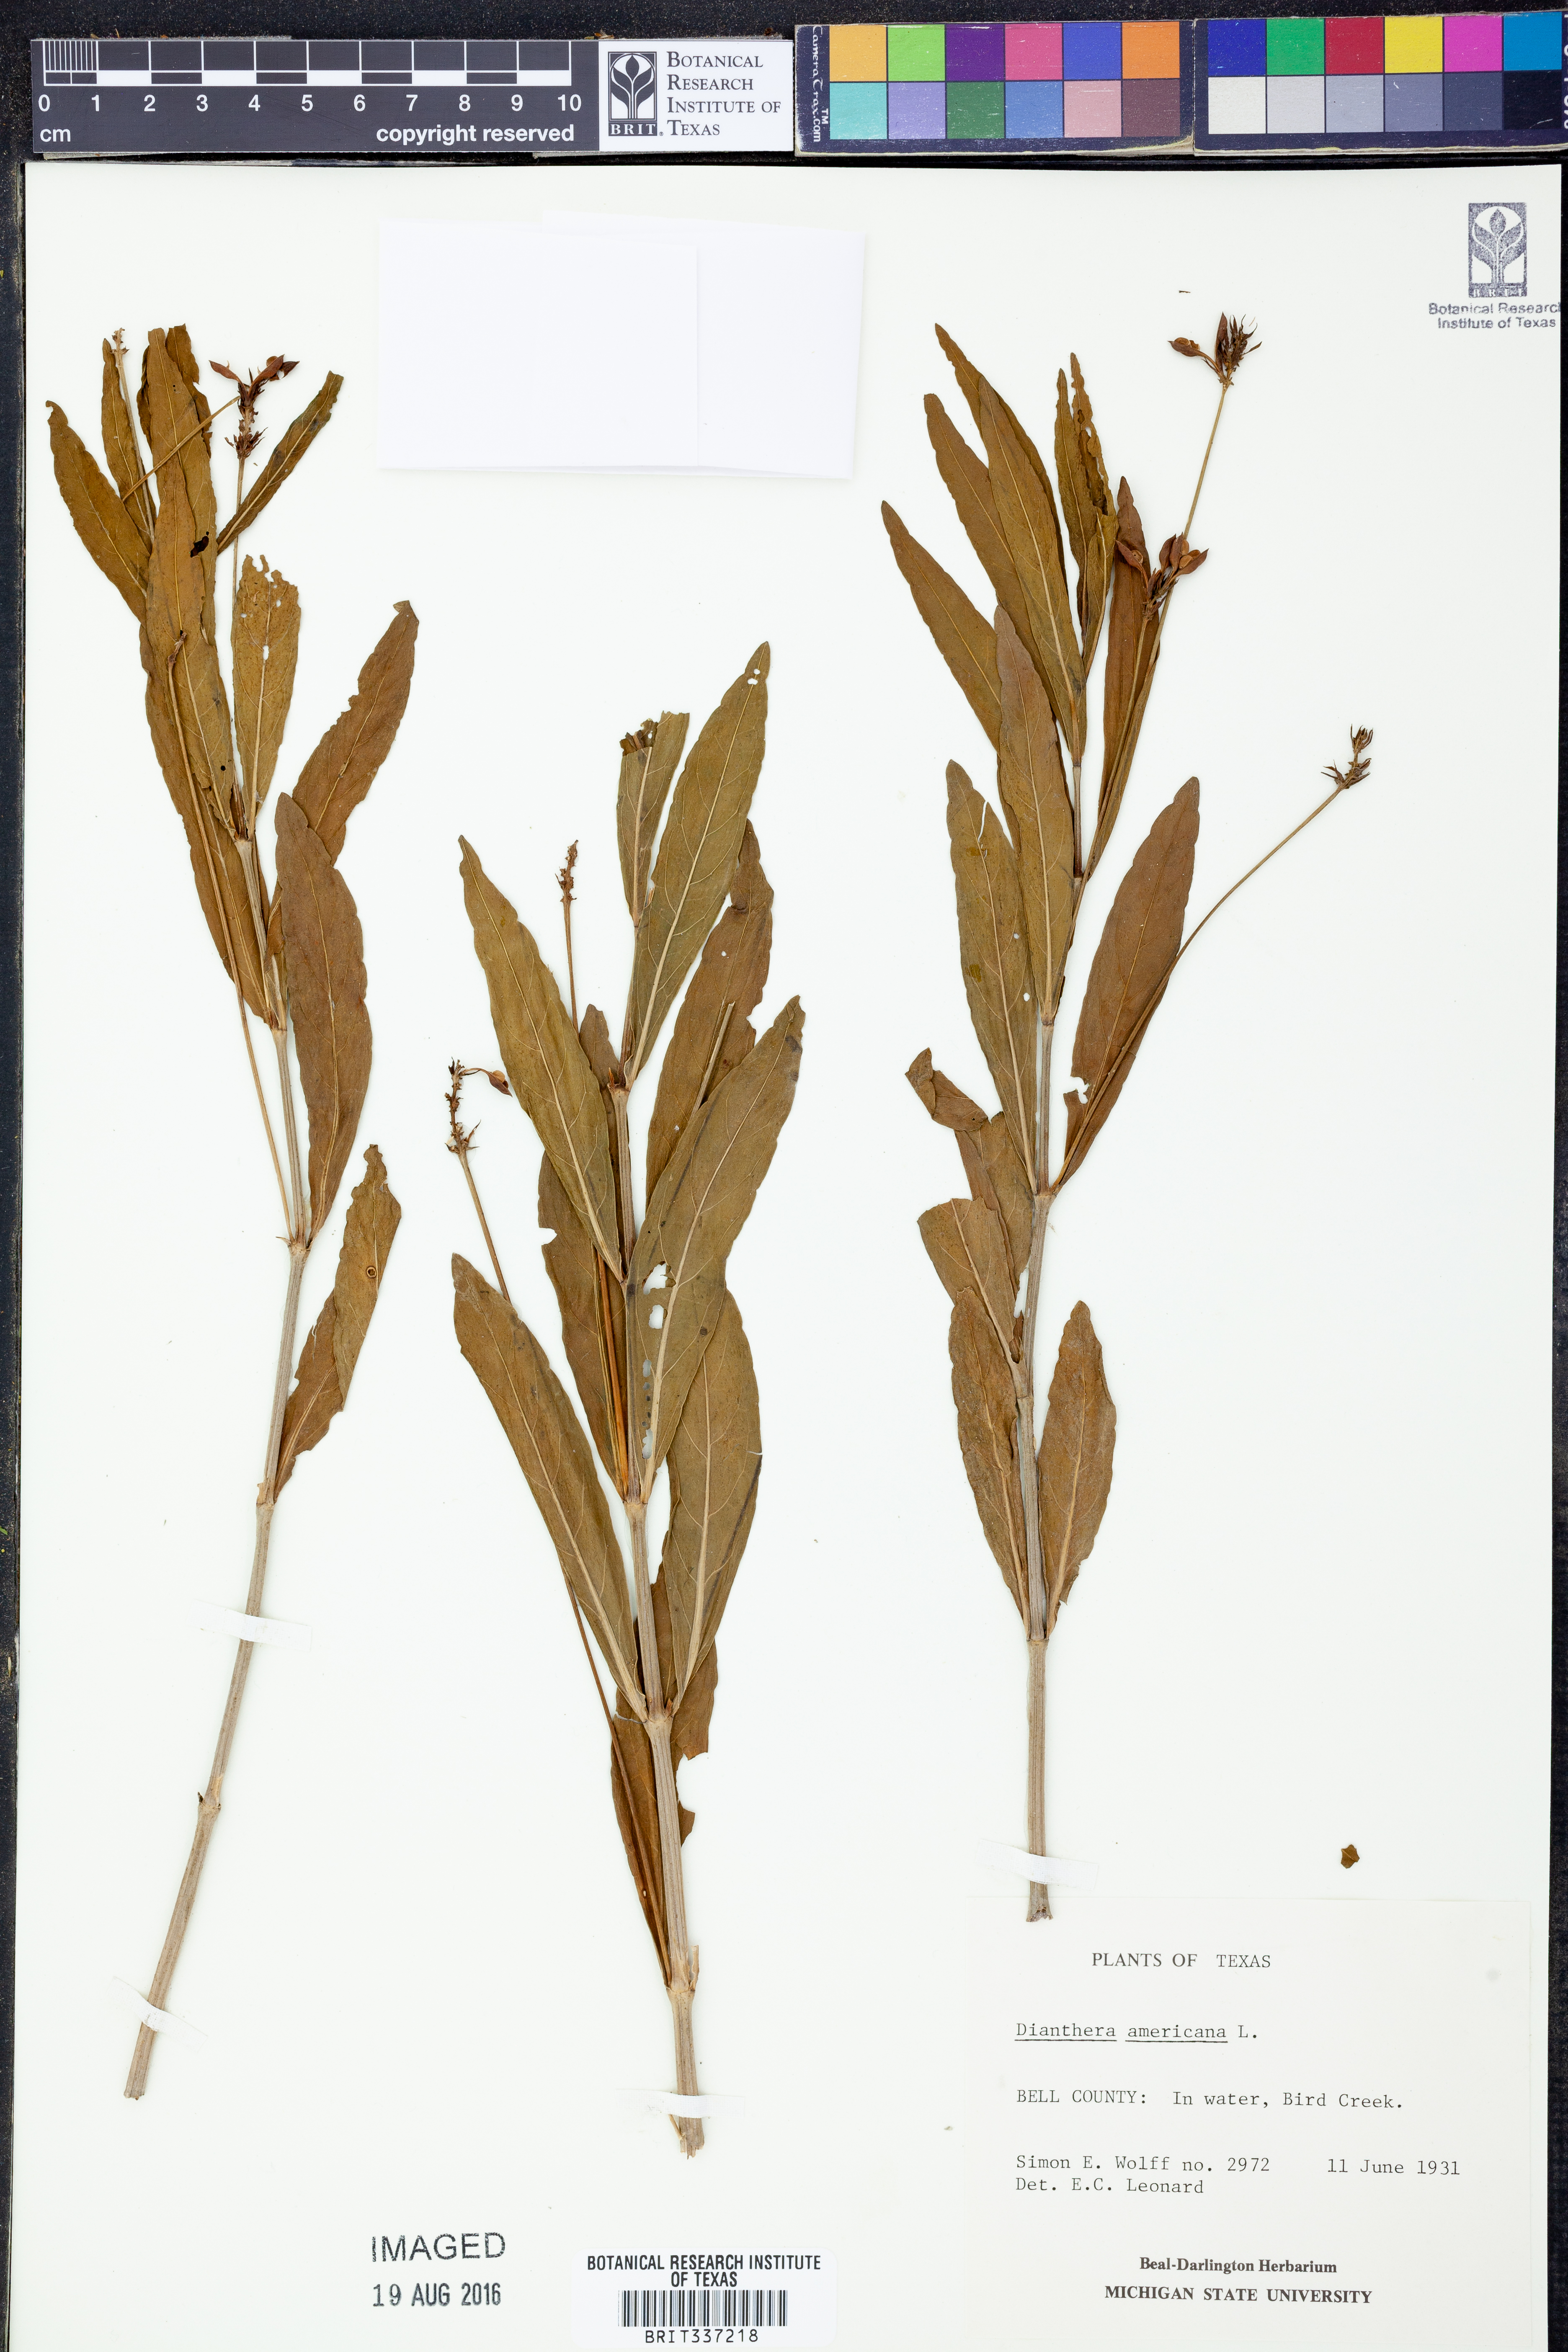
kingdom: Plantae
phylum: Tracheophyta
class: Magnoliopsida
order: Lamiales
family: Acanthaceae
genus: Rostellularia
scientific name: Rostellularia procumbens
